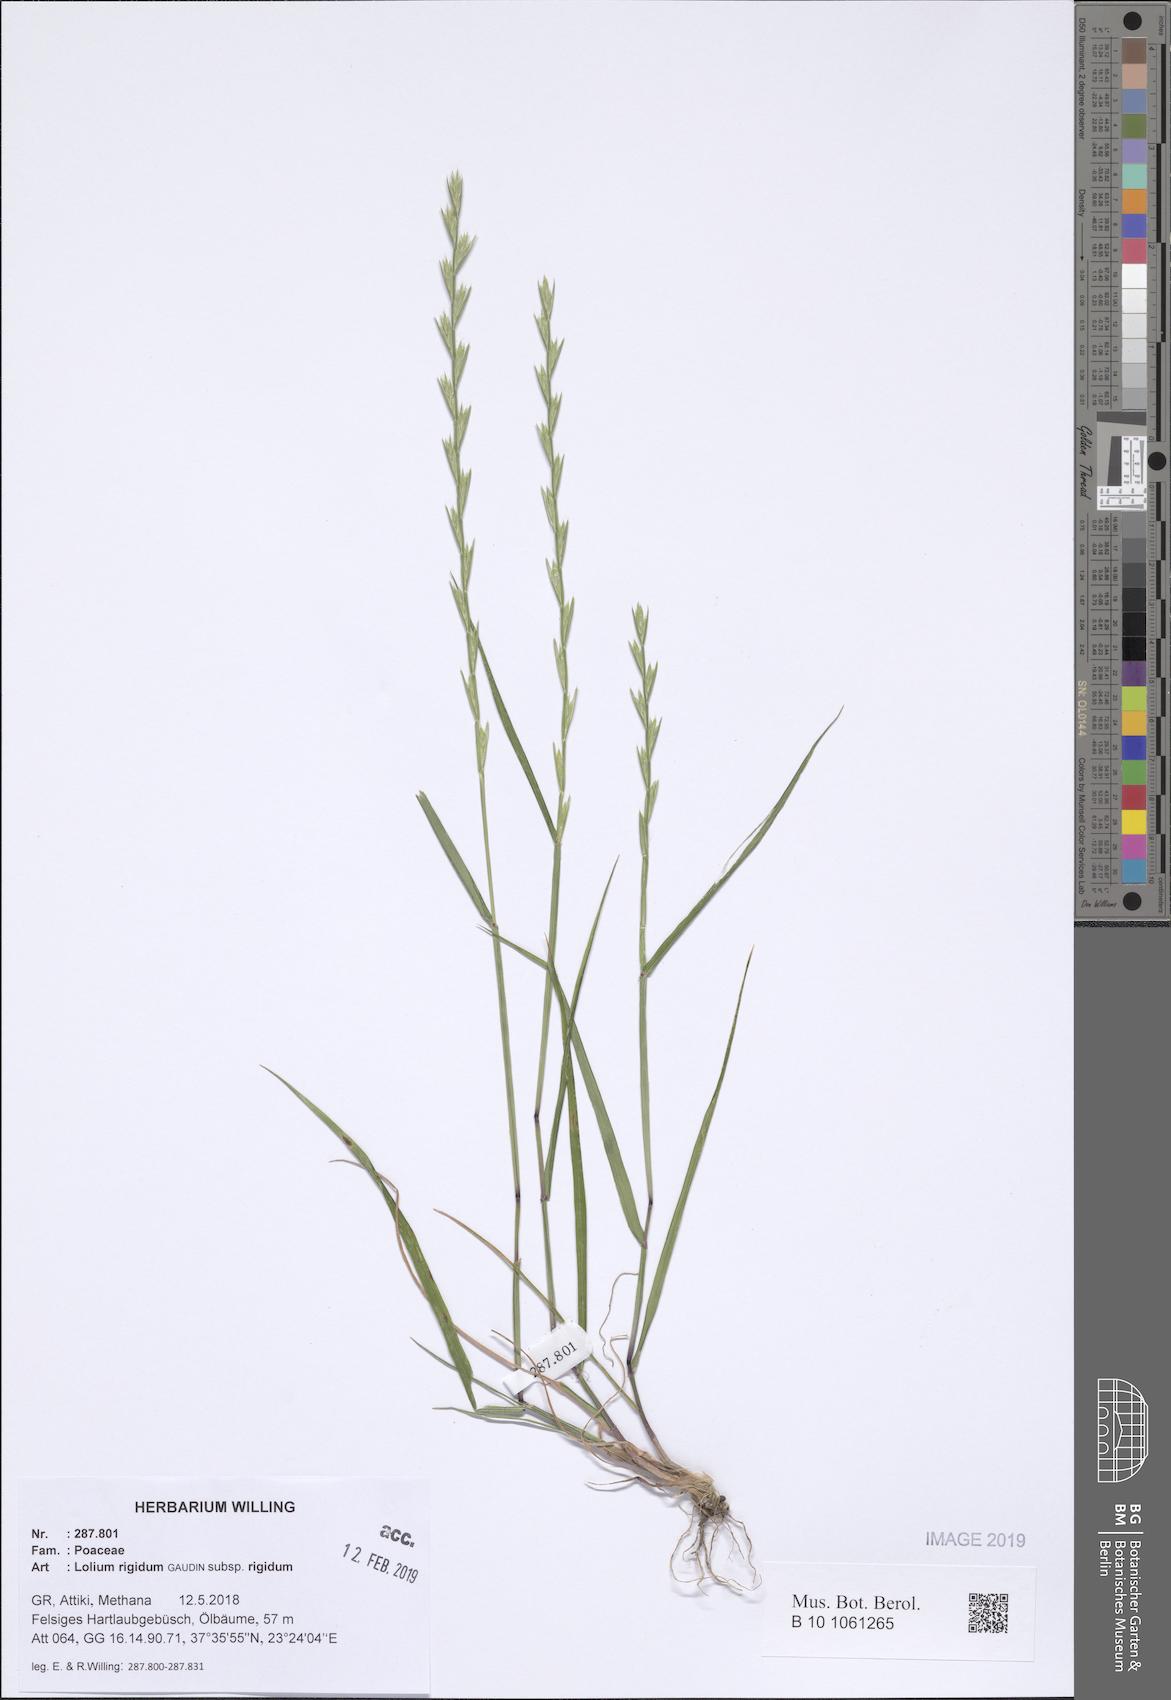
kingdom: Plantae
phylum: Tracheophyta
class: Liliopsida
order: Poales
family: Poaceae
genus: Lolium
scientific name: Lolium rigidum
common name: Wimmera ryegrass
